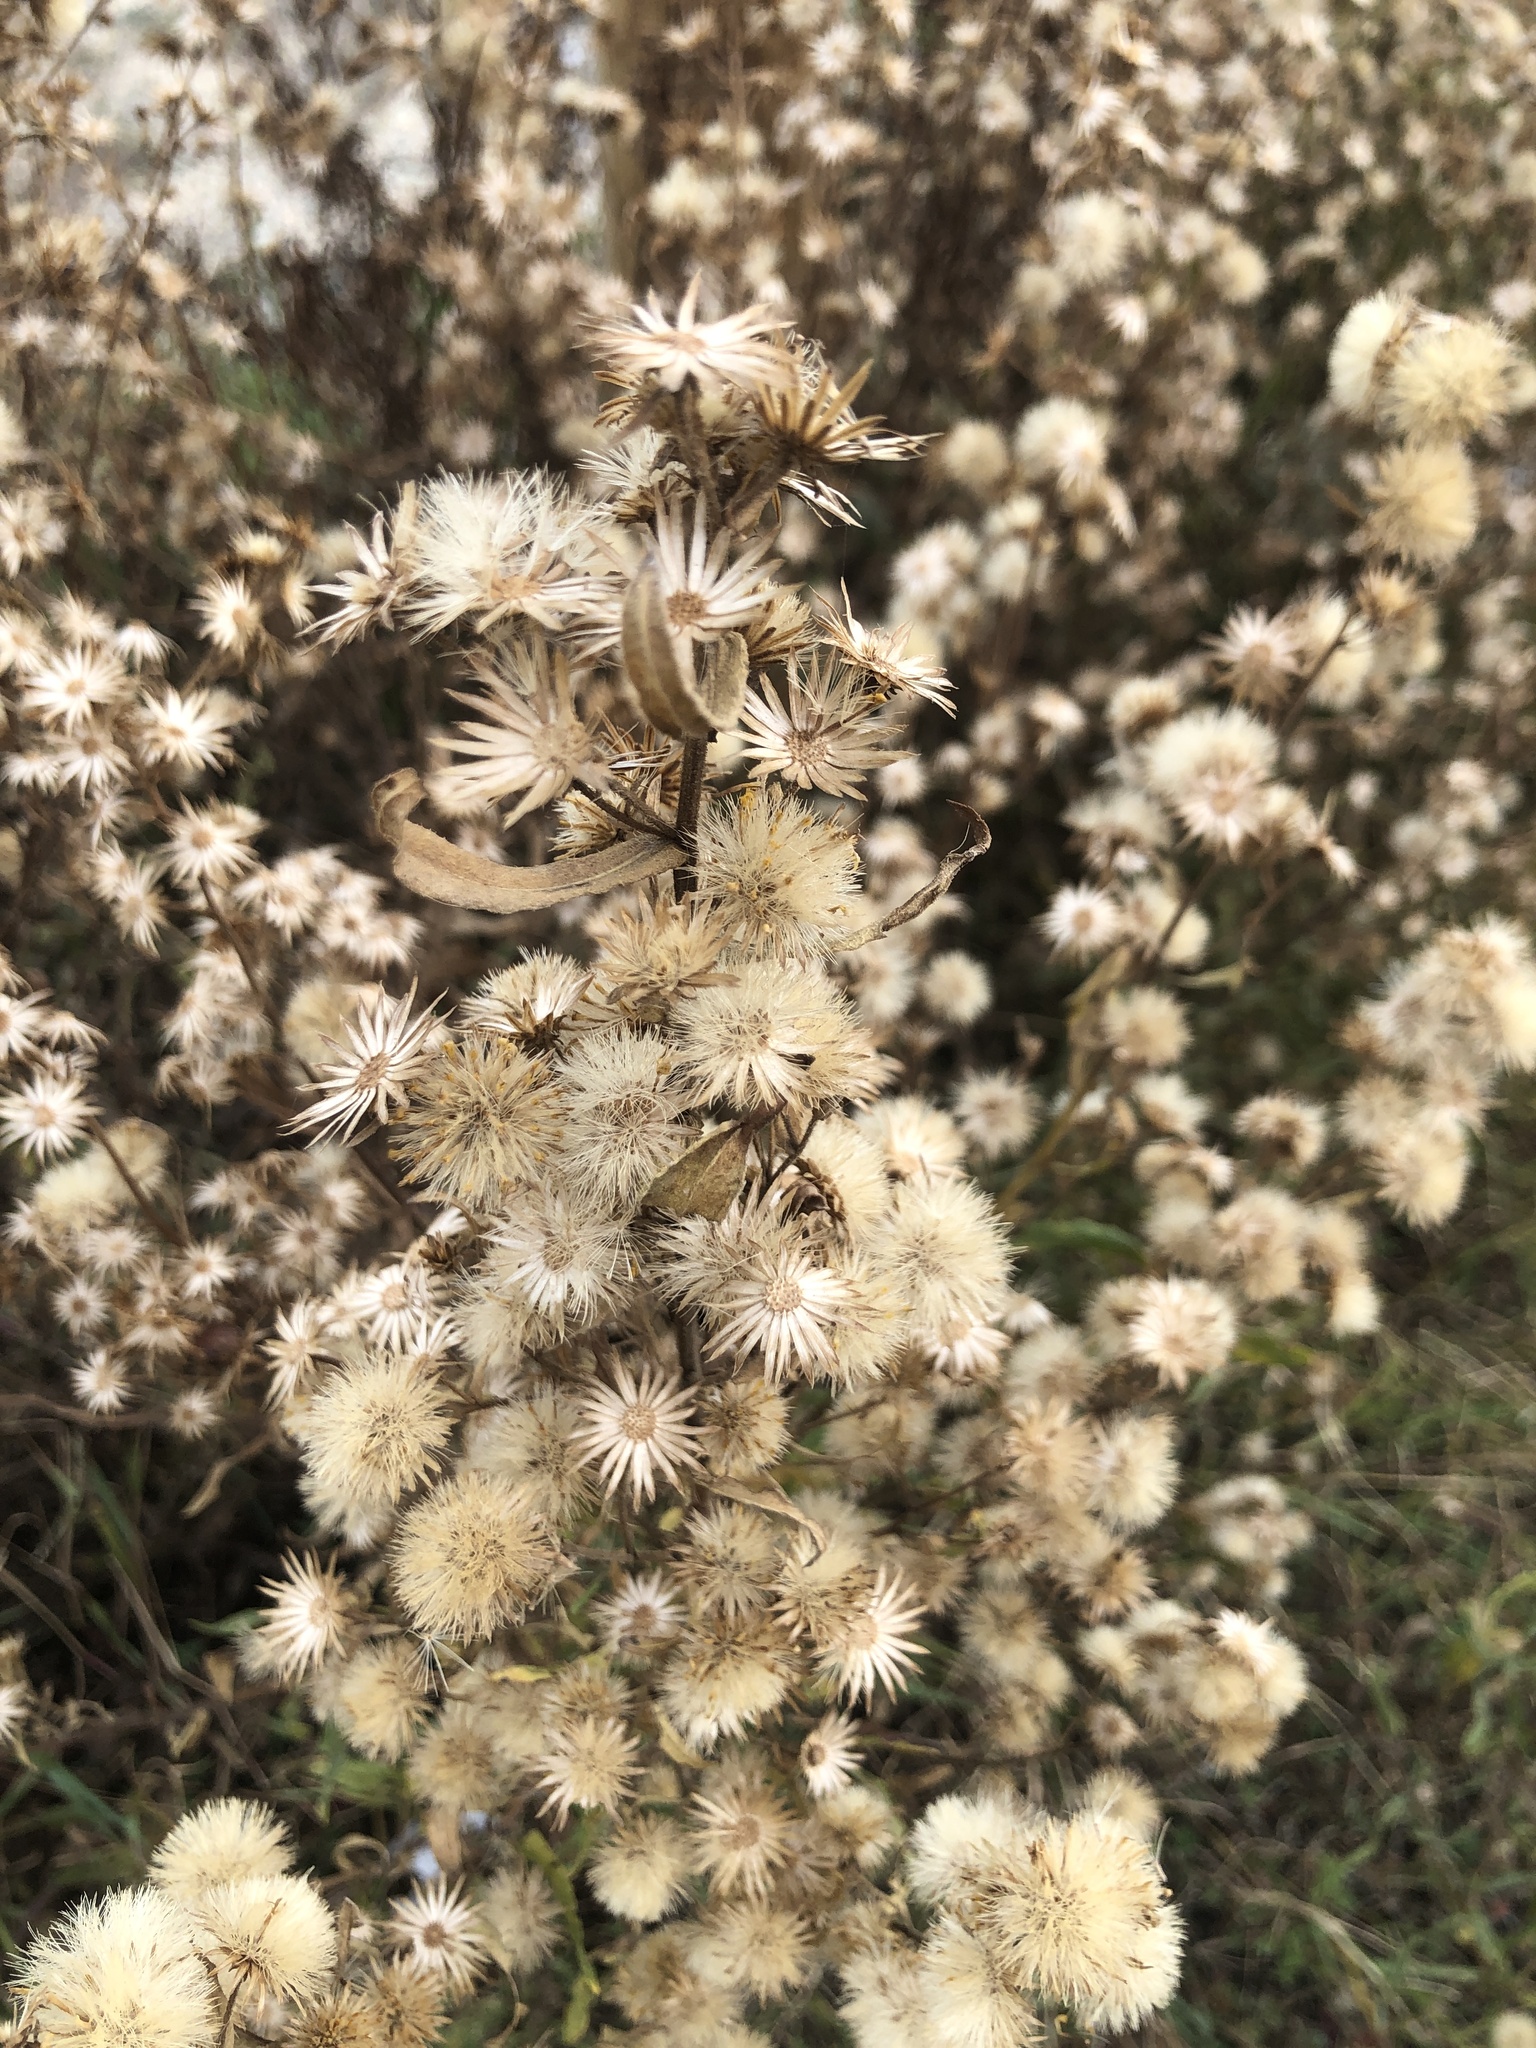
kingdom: Plantae
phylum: Tracheophyta
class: Magnoliopsida
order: Asterales
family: Asteraceae
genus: Dittrichia
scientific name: Dittrichia viscosa
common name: Woody fleabane
